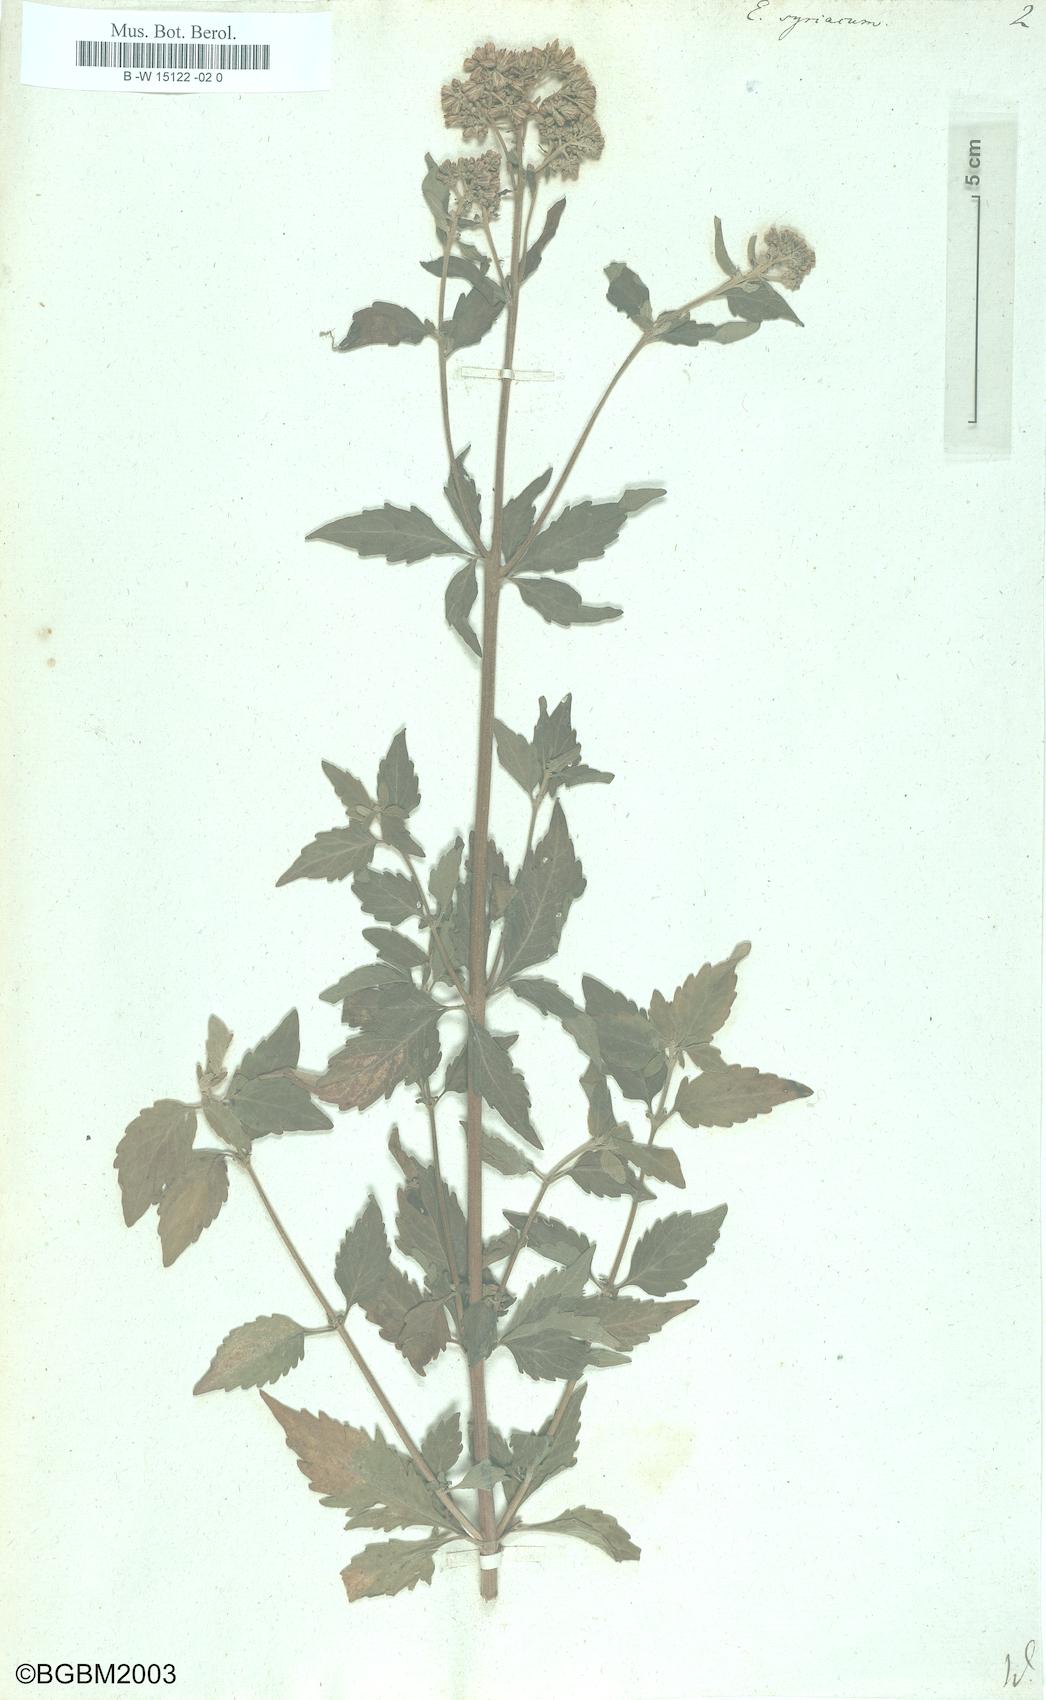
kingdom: Plantae
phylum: Tracheophyta
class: Magnoliopsida
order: Asterales
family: Asteraceae
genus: Eupatorium
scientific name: Eupatorium syriacum
